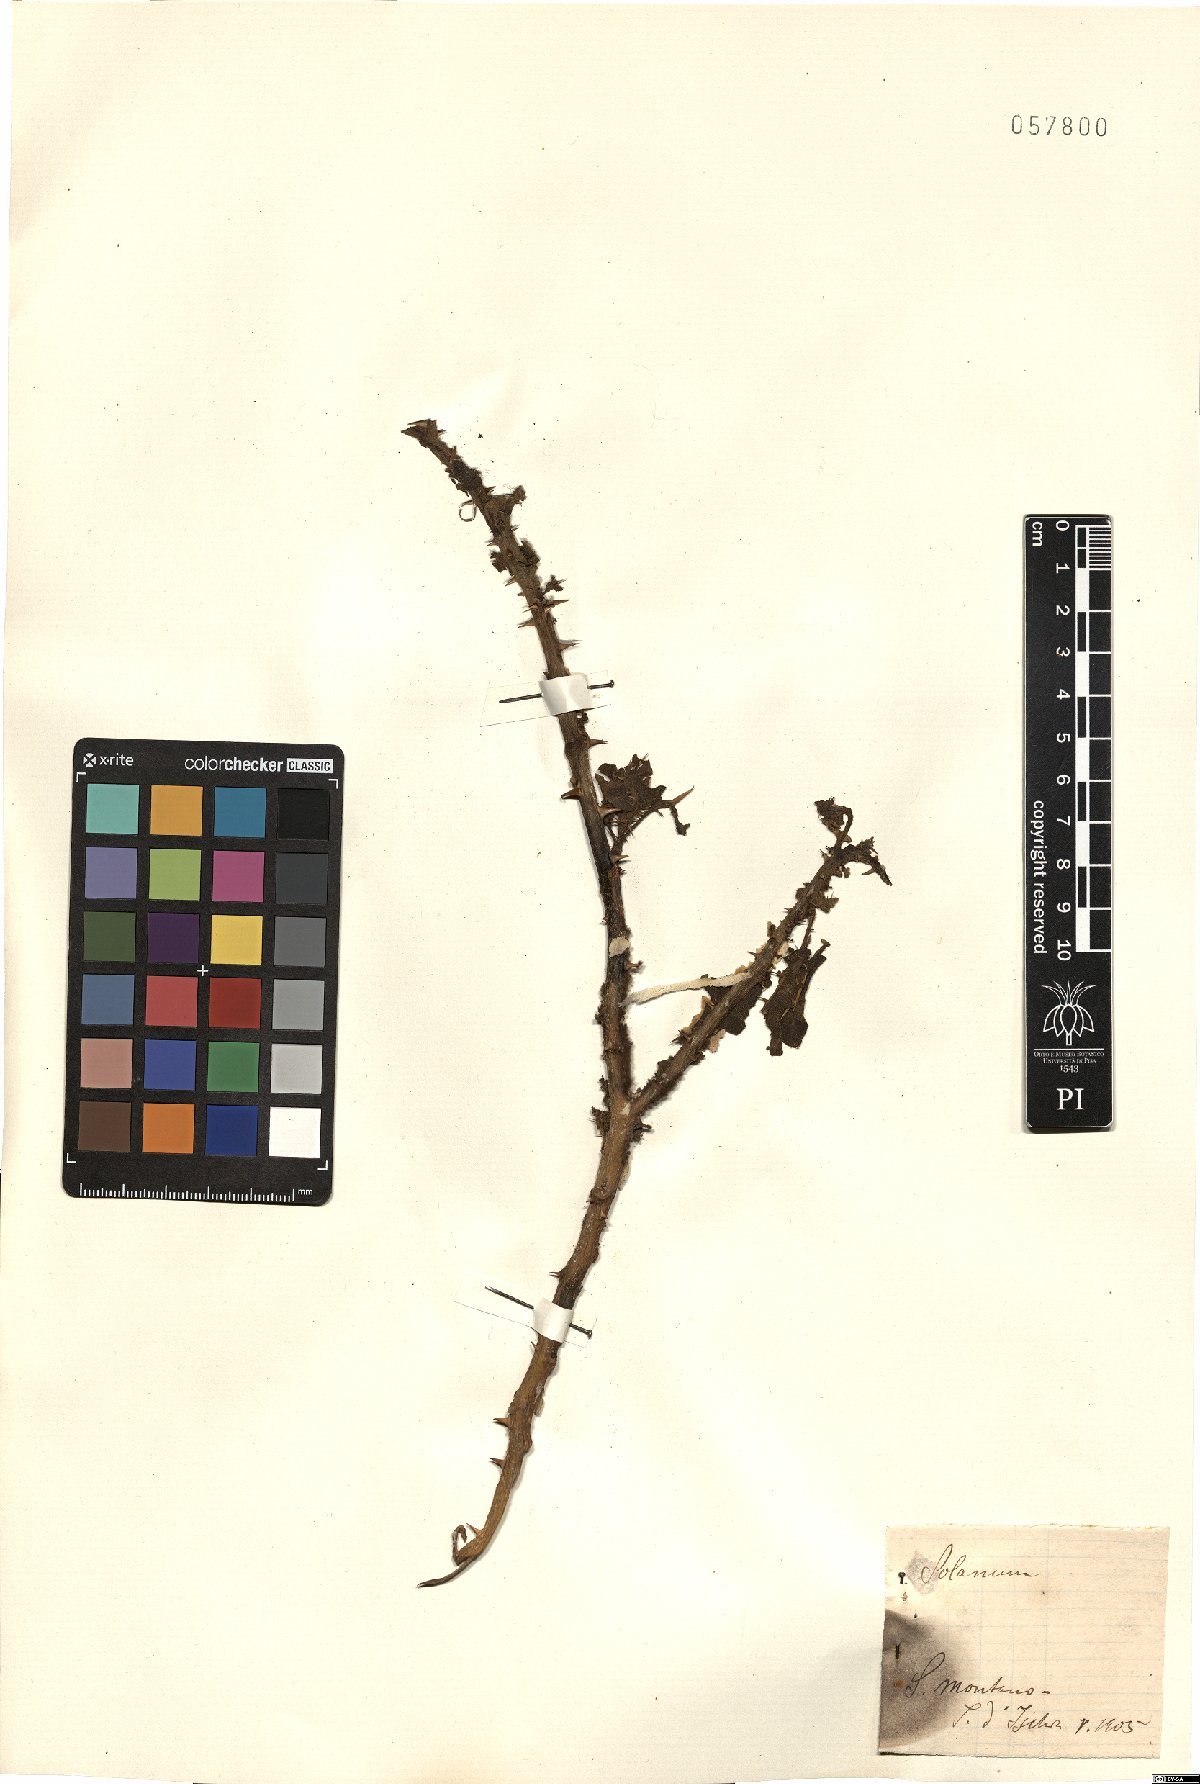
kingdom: Plantae
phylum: Tracheophyta
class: Magnoliopsida
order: Solanales
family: Solanaceae
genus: Solanum
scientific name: Solanum
